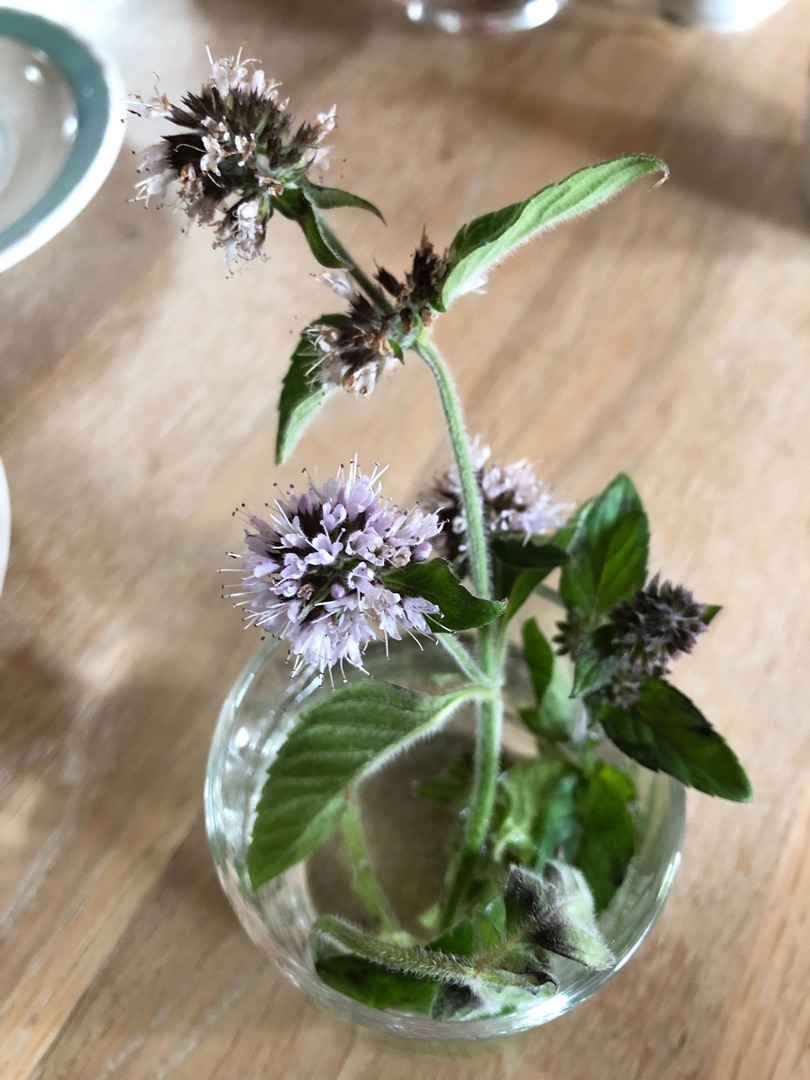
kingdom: Plantae
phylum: Tracheophyta
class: Magnoliopsida
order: Lamiales
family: Lamiaceae
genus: Mentha
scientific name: Mentha aquatica
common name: Vand-mynte
